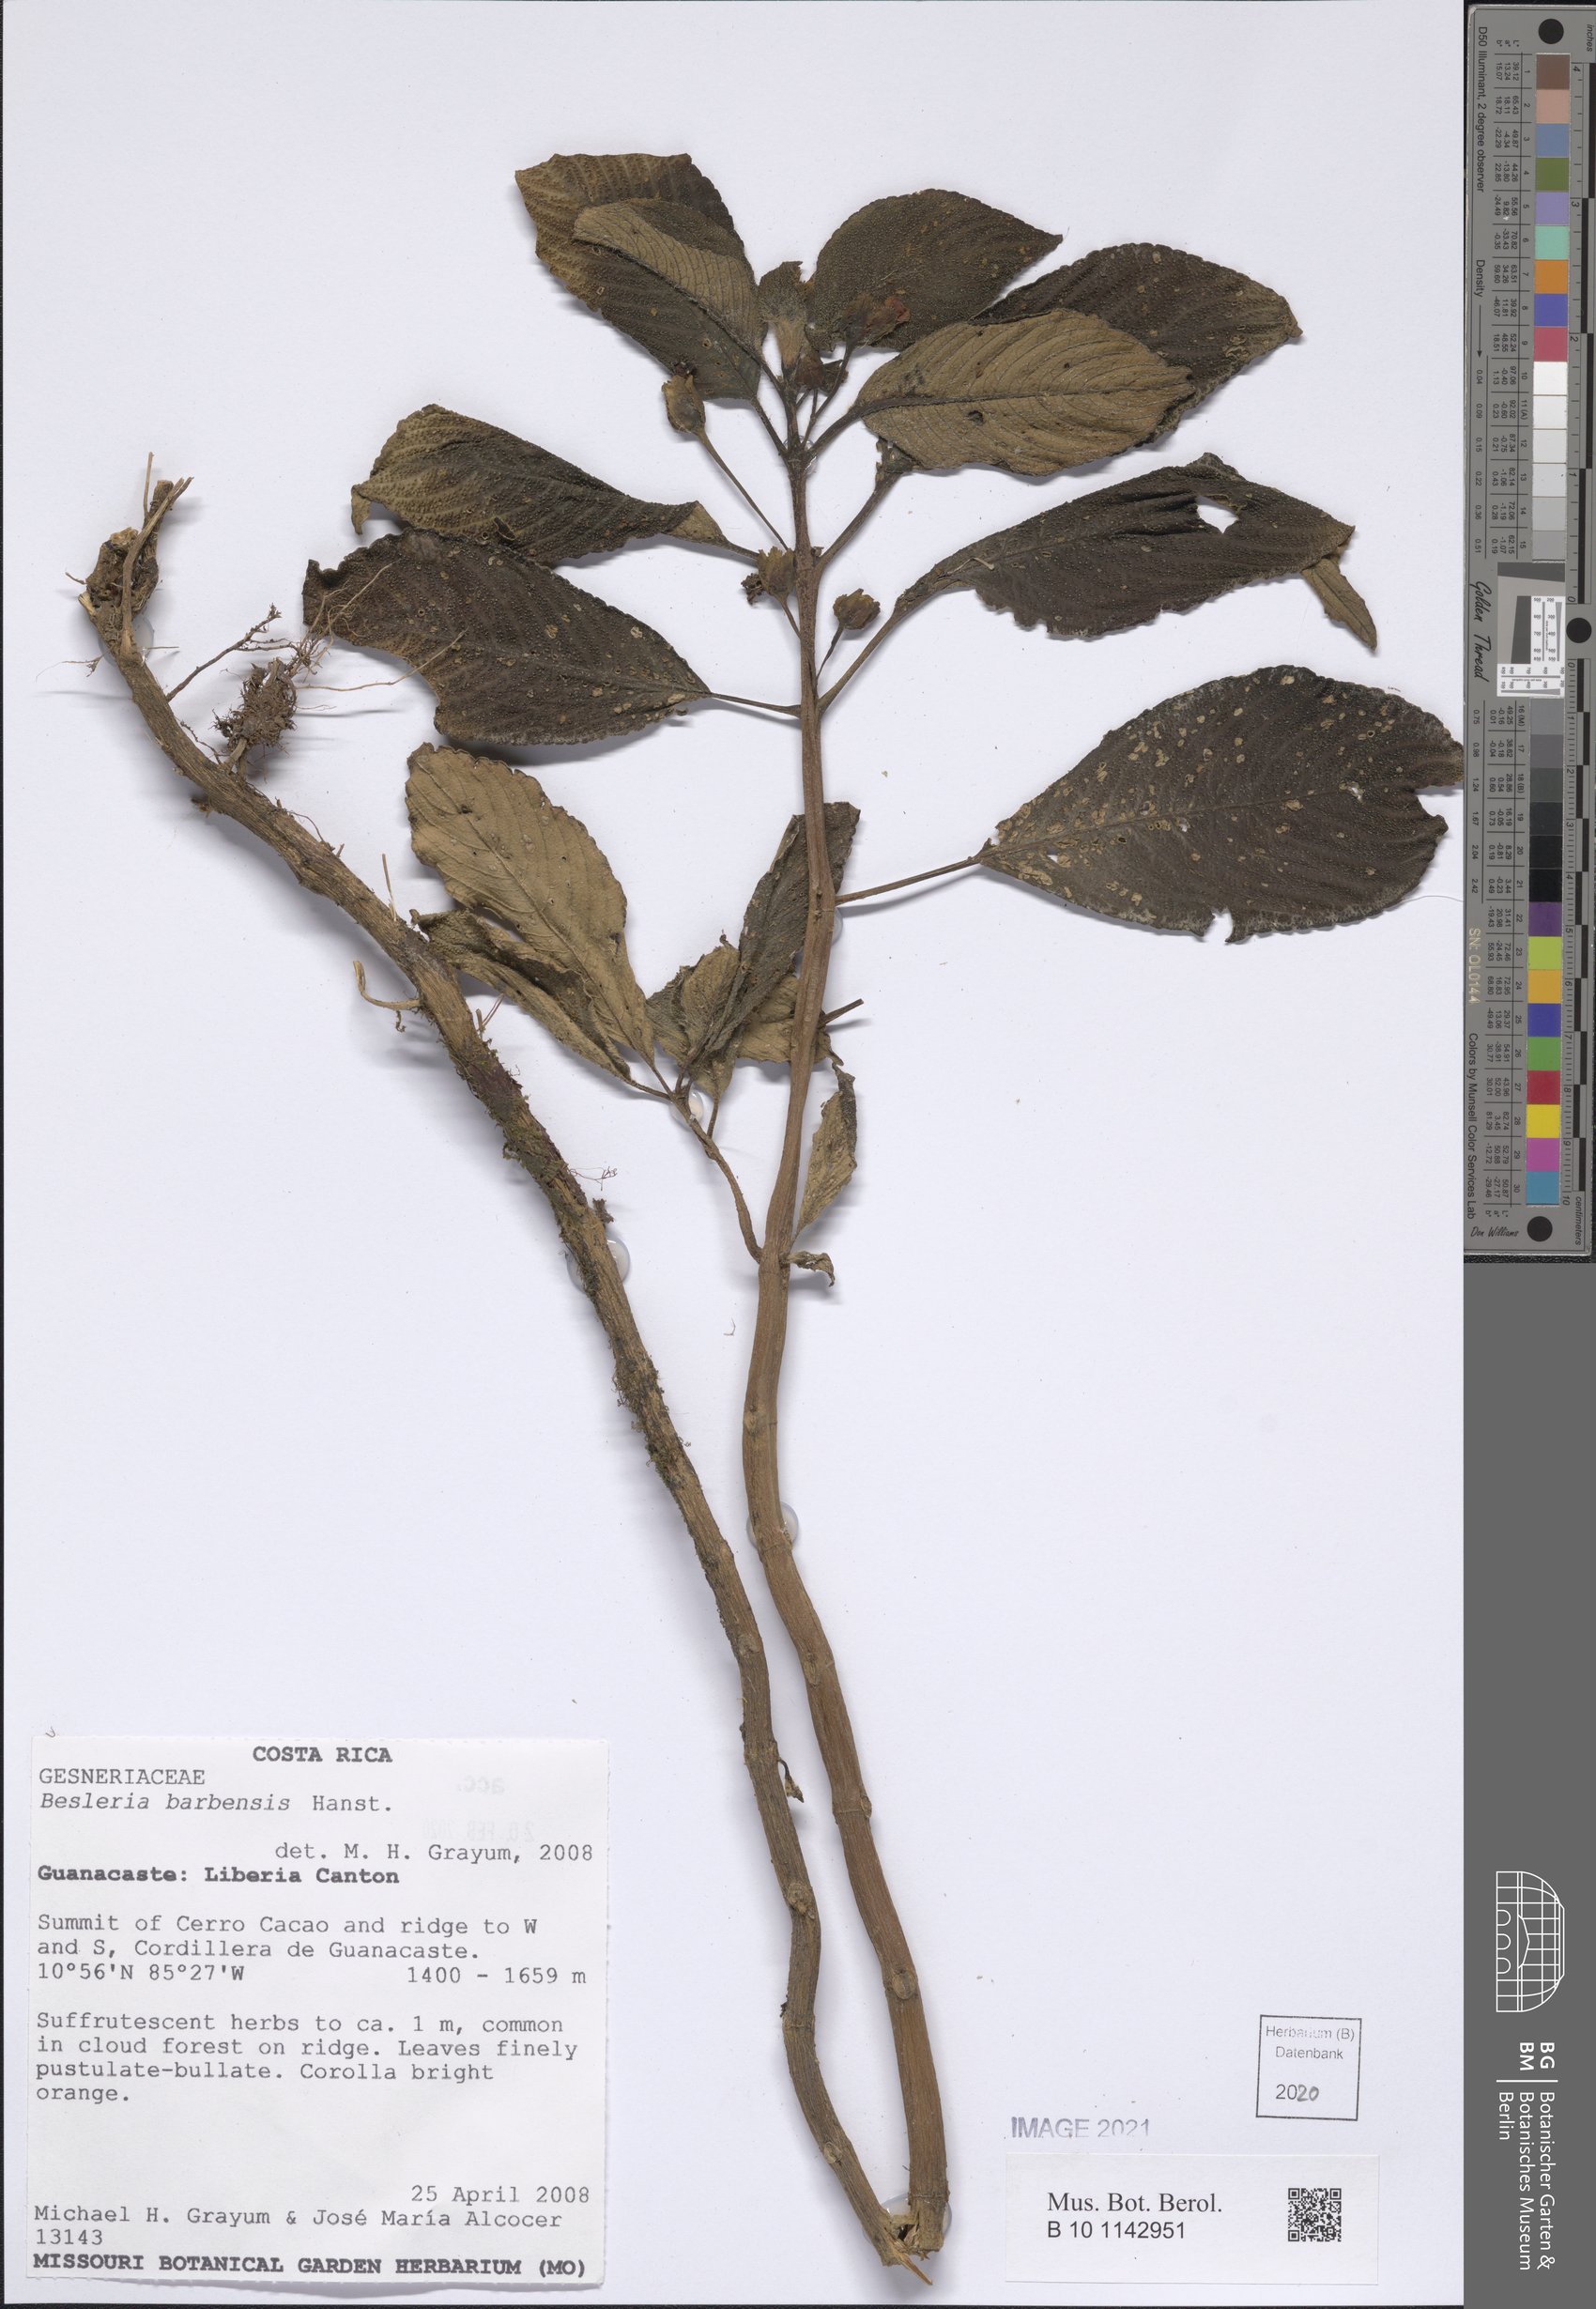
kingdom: Plantae
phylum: Tracheophyta
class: Magnoliopsida
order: Lamiales
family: Gesneriaceae
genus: Besleria
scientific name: Besleria barbensis
